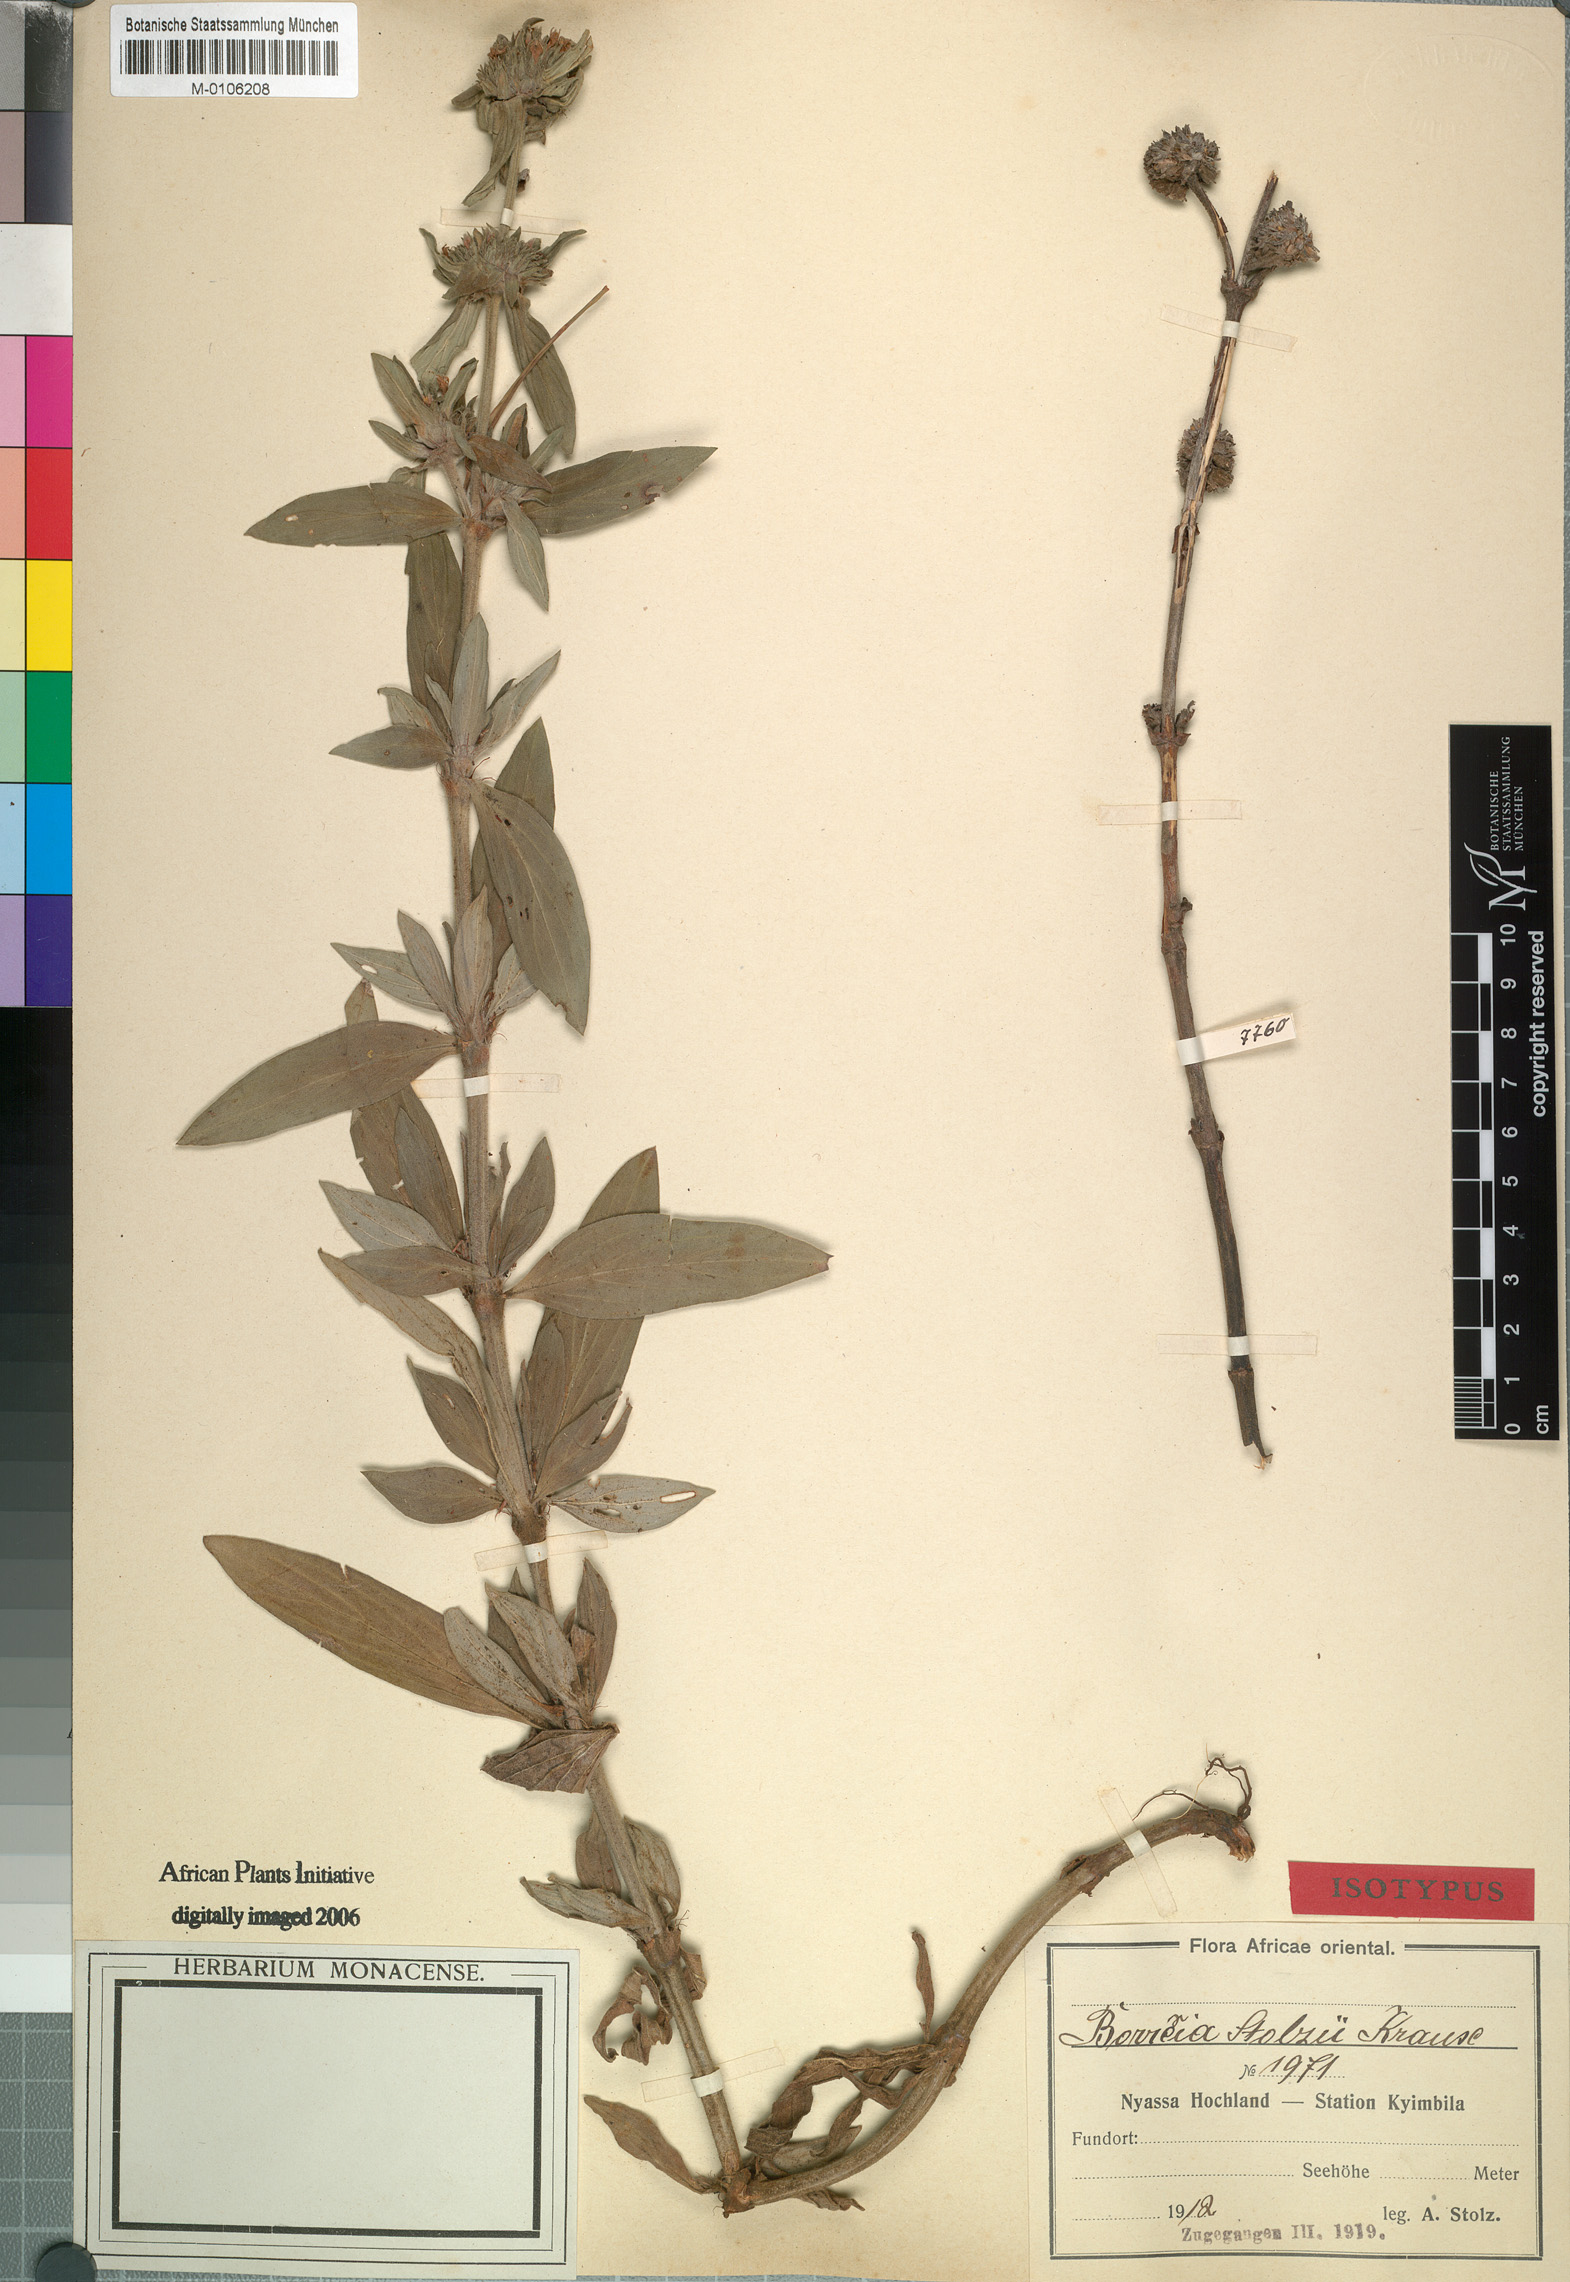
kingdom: Plantae
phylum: Tracheophyta
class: Magnoliopsida
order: Gentianales
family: Rubiaceae
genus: Spermacoce
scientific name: Spermacoce senensis
